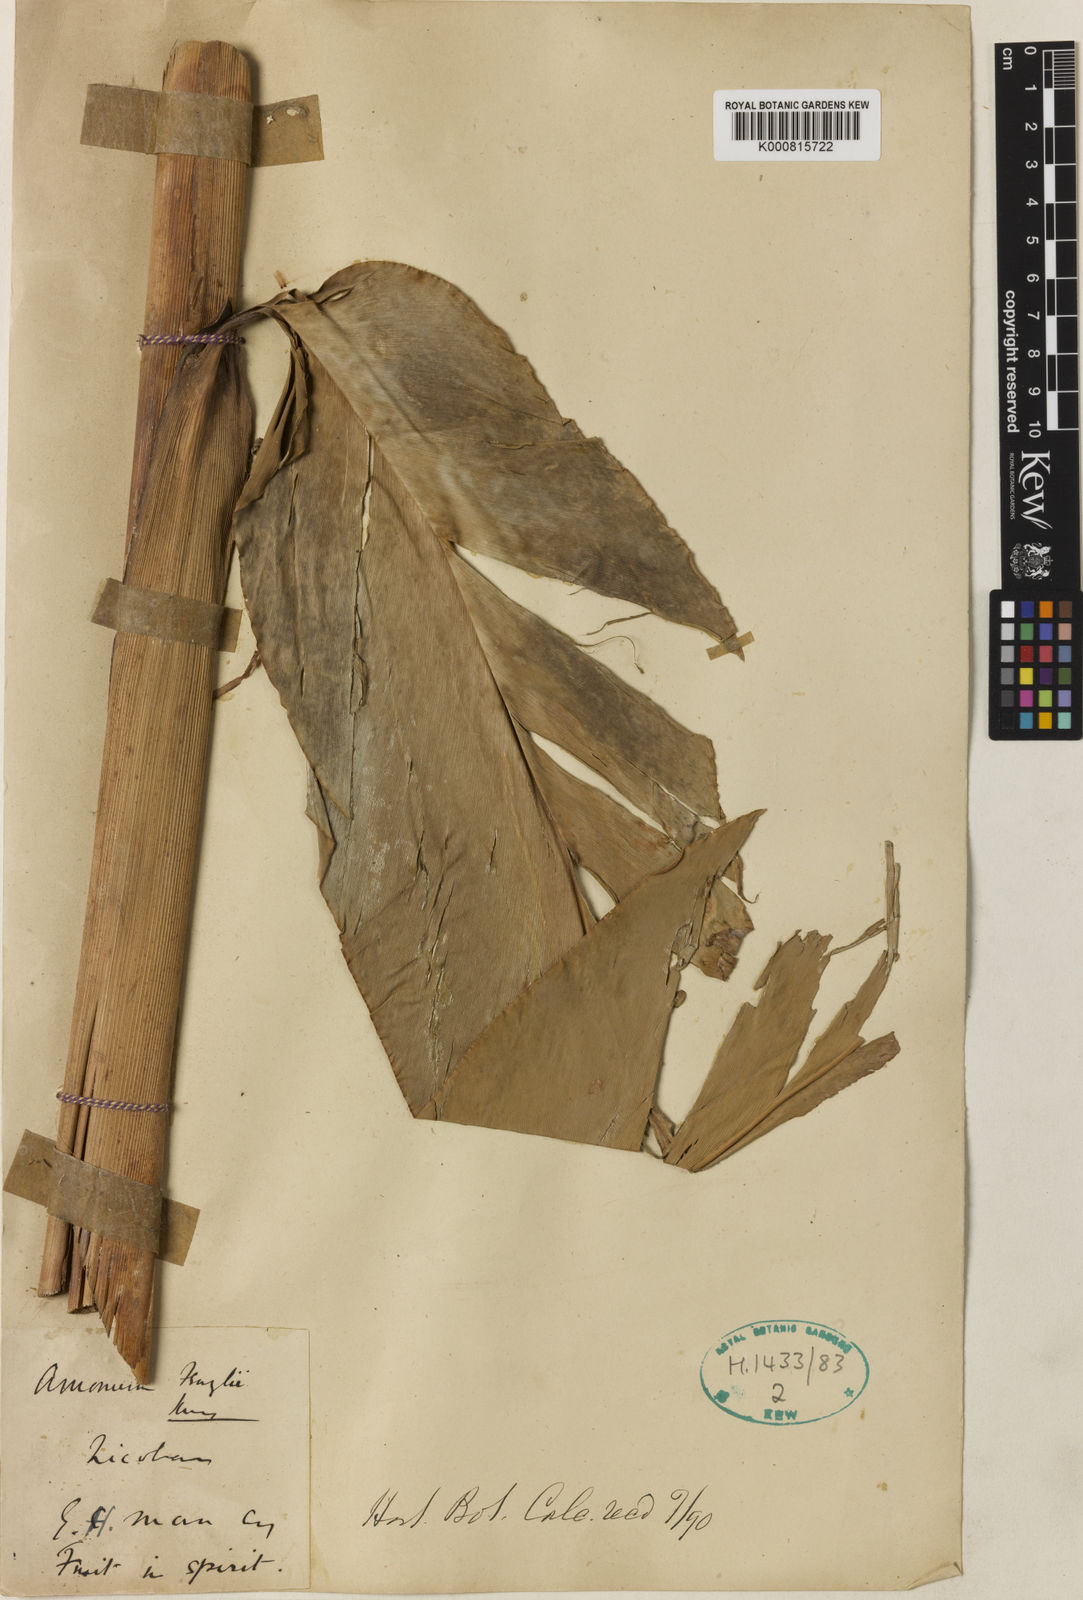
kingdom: Plantae
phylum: Tracheophyta
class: Liliopsida
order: Zingiberales
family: Zingiberaceae
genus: Etlingera
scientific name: Etlingera
